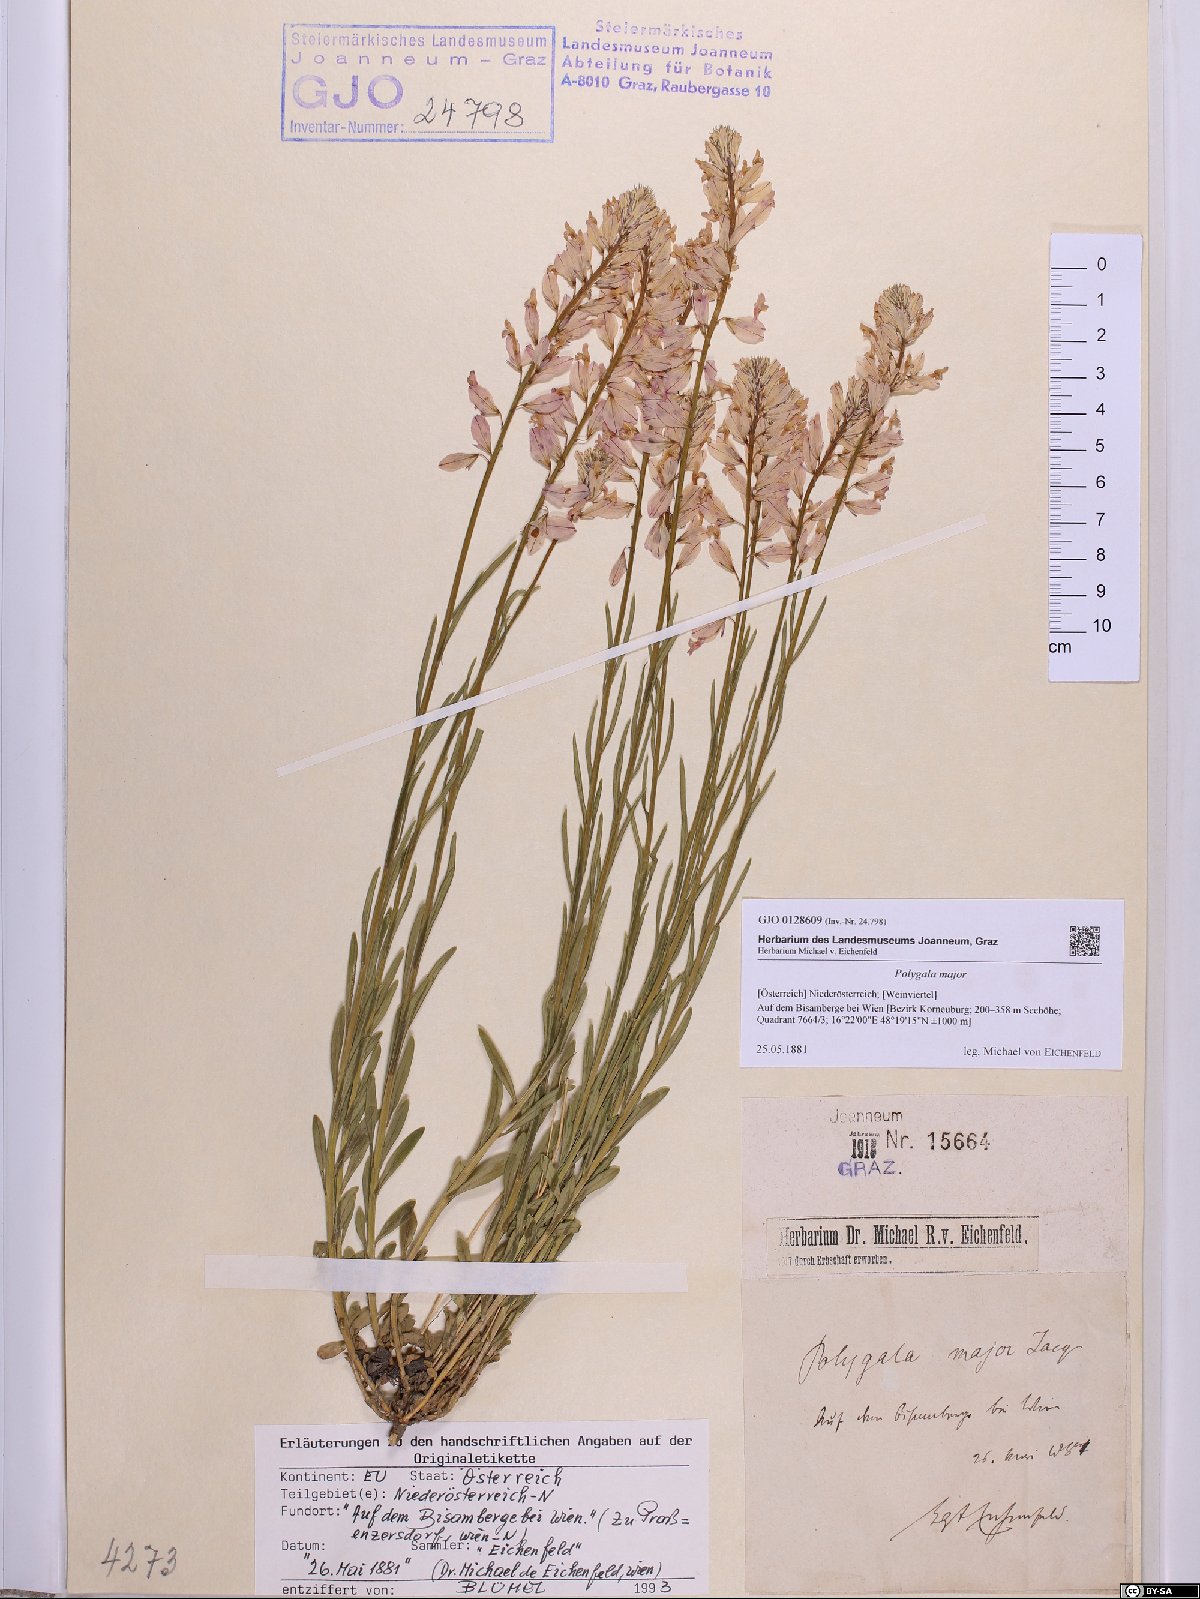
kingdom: Plantae
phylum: Tracheophyta
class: Magnoliopsida
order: Fabales
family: Polygalaceae
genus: Polygala
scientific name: Polygala major
